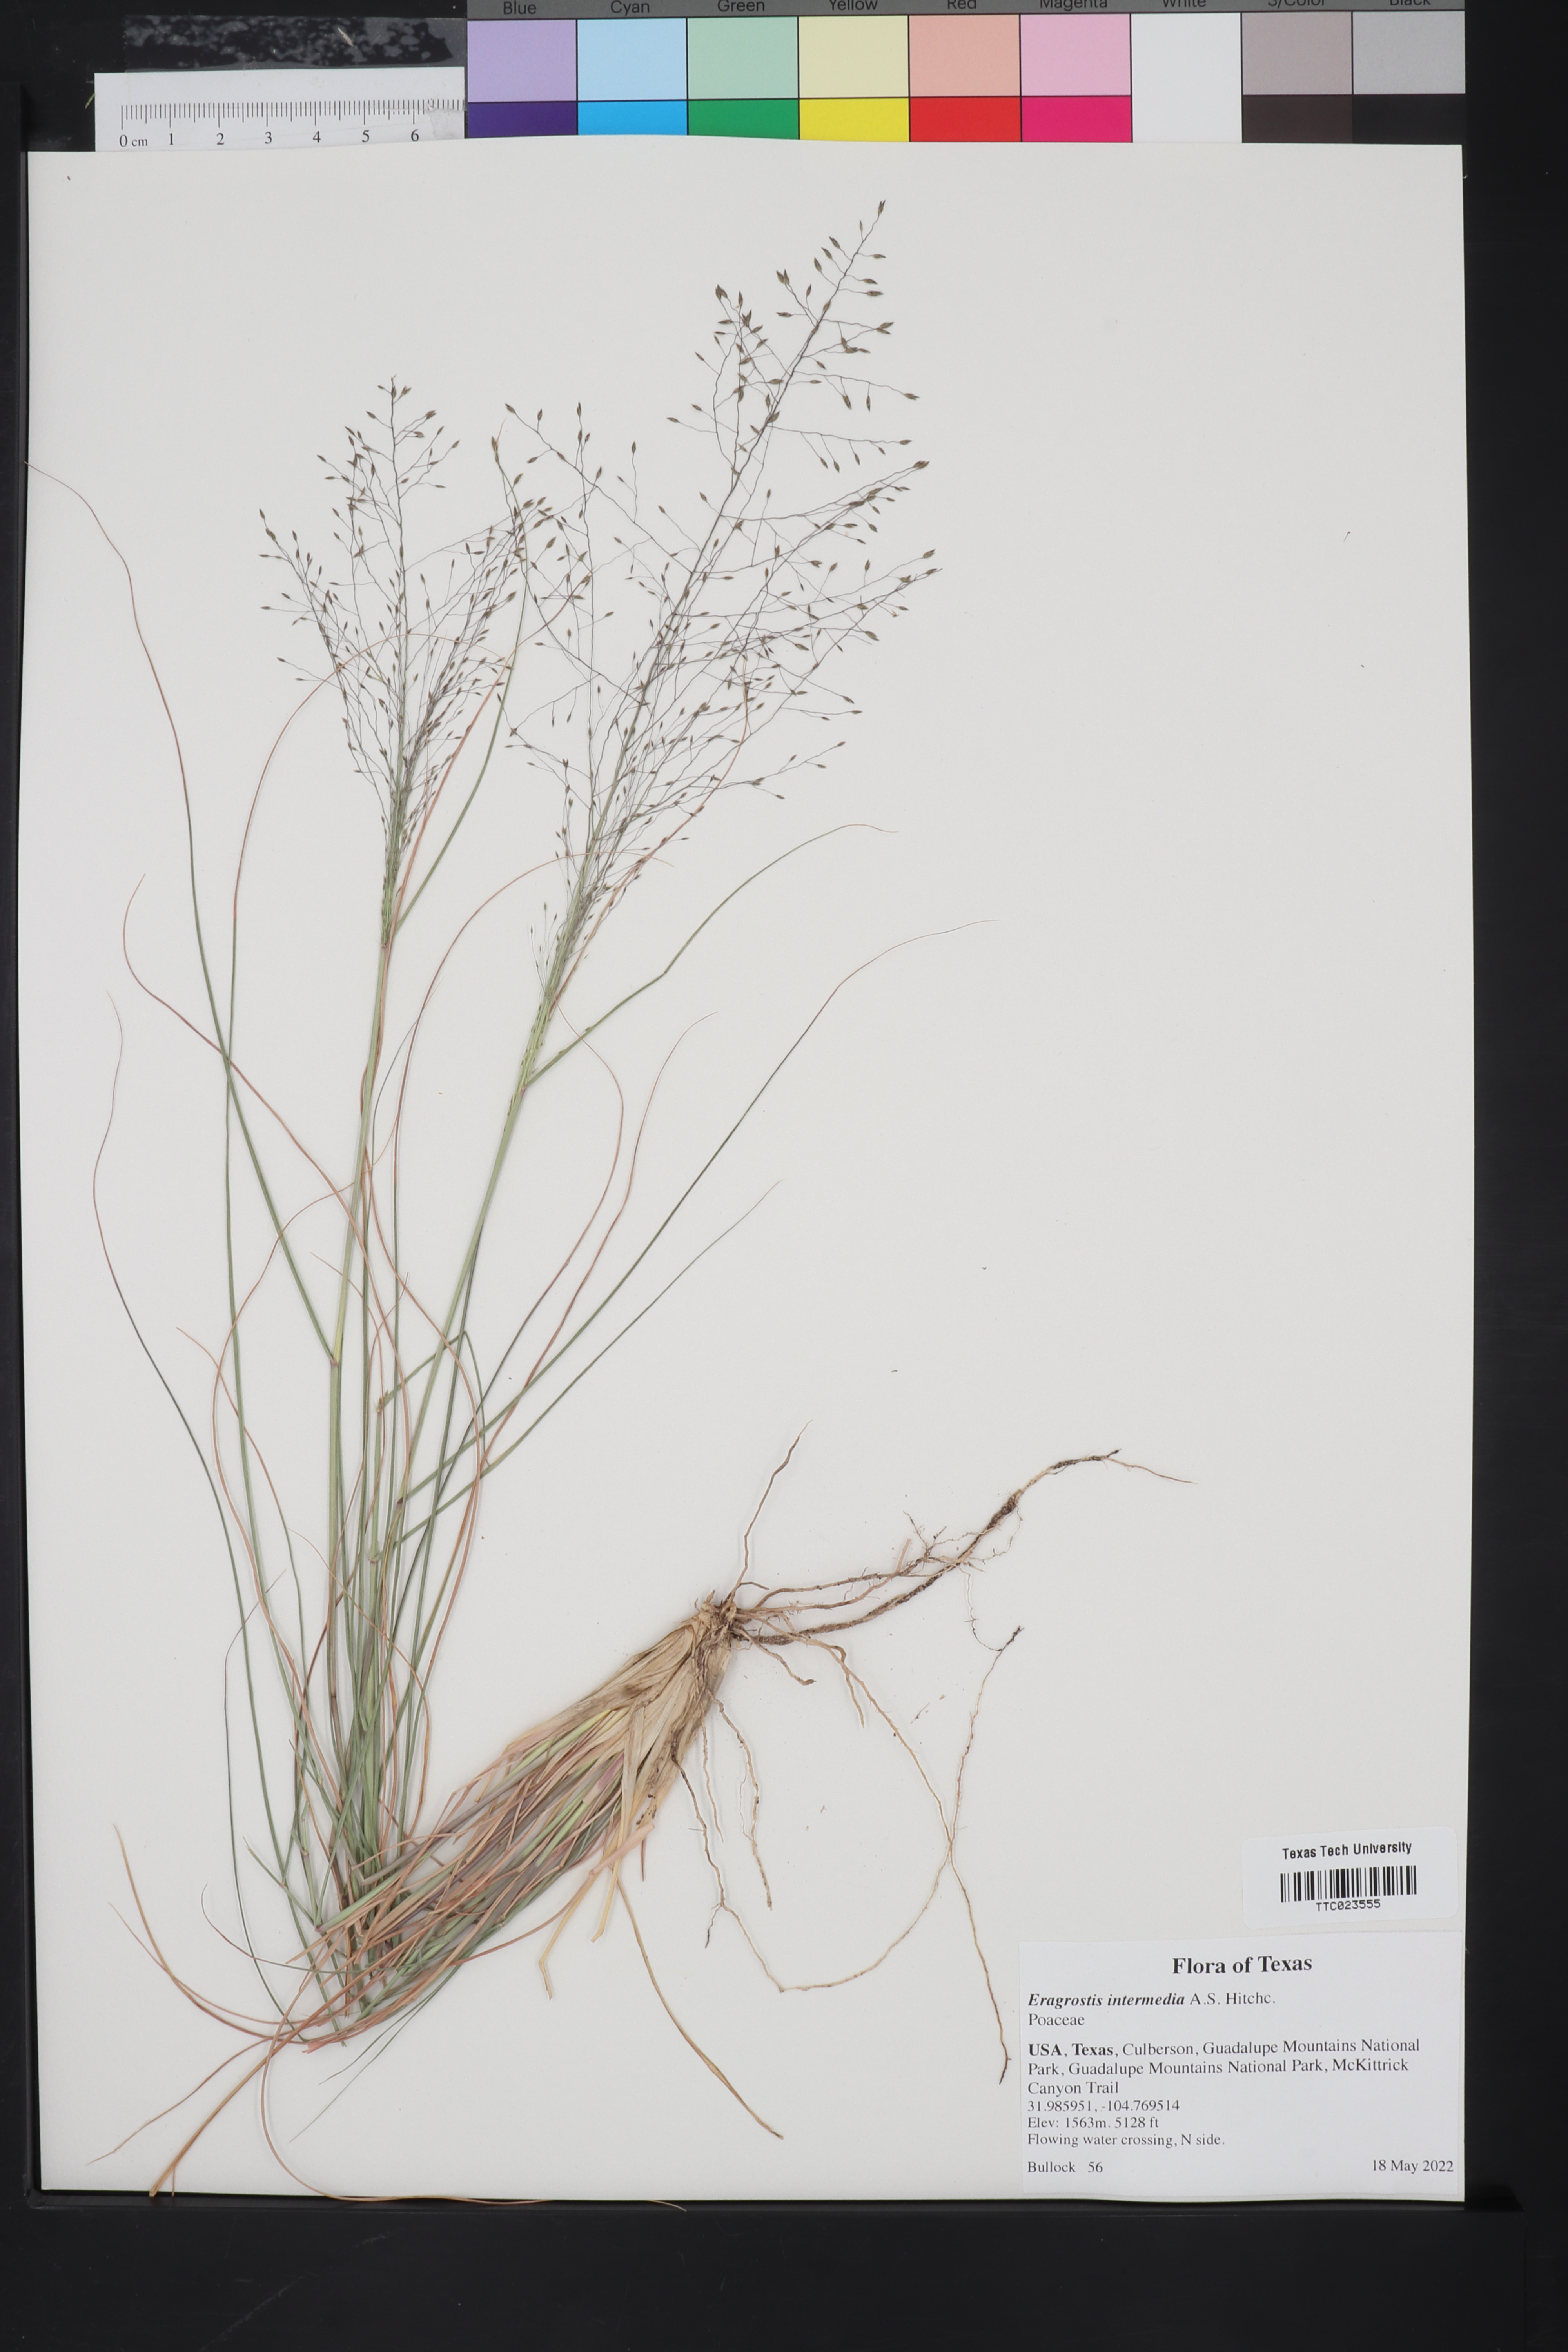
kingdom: Plantae
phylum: Tracheophyta
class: Liliopsida
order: Poales
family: Poaceae
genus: Eragrostis
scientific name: Eragrostis intermedia
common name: Plains love grass
